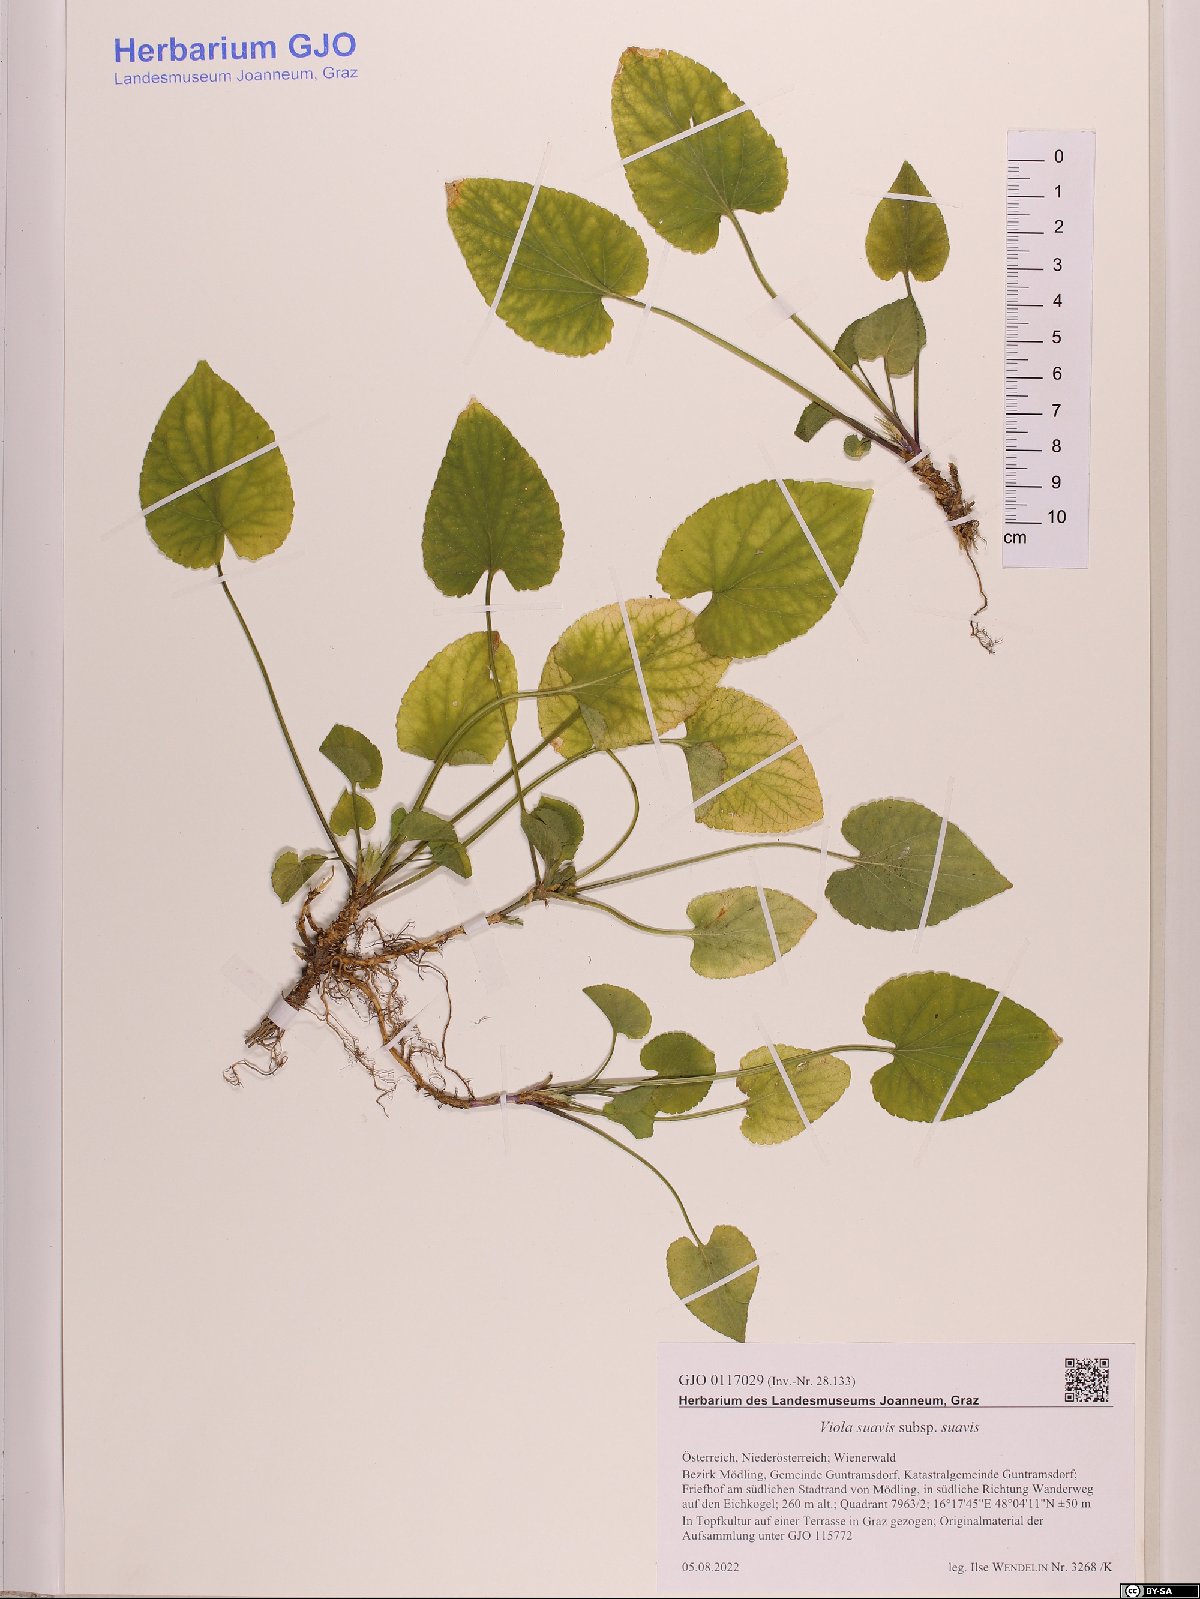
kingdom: Plantae
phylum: Tracheophyta
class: Magnoliopsida
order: Malpighiales
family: Violaceae
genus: Viola
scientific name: Viola suavis
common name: Russian violet
